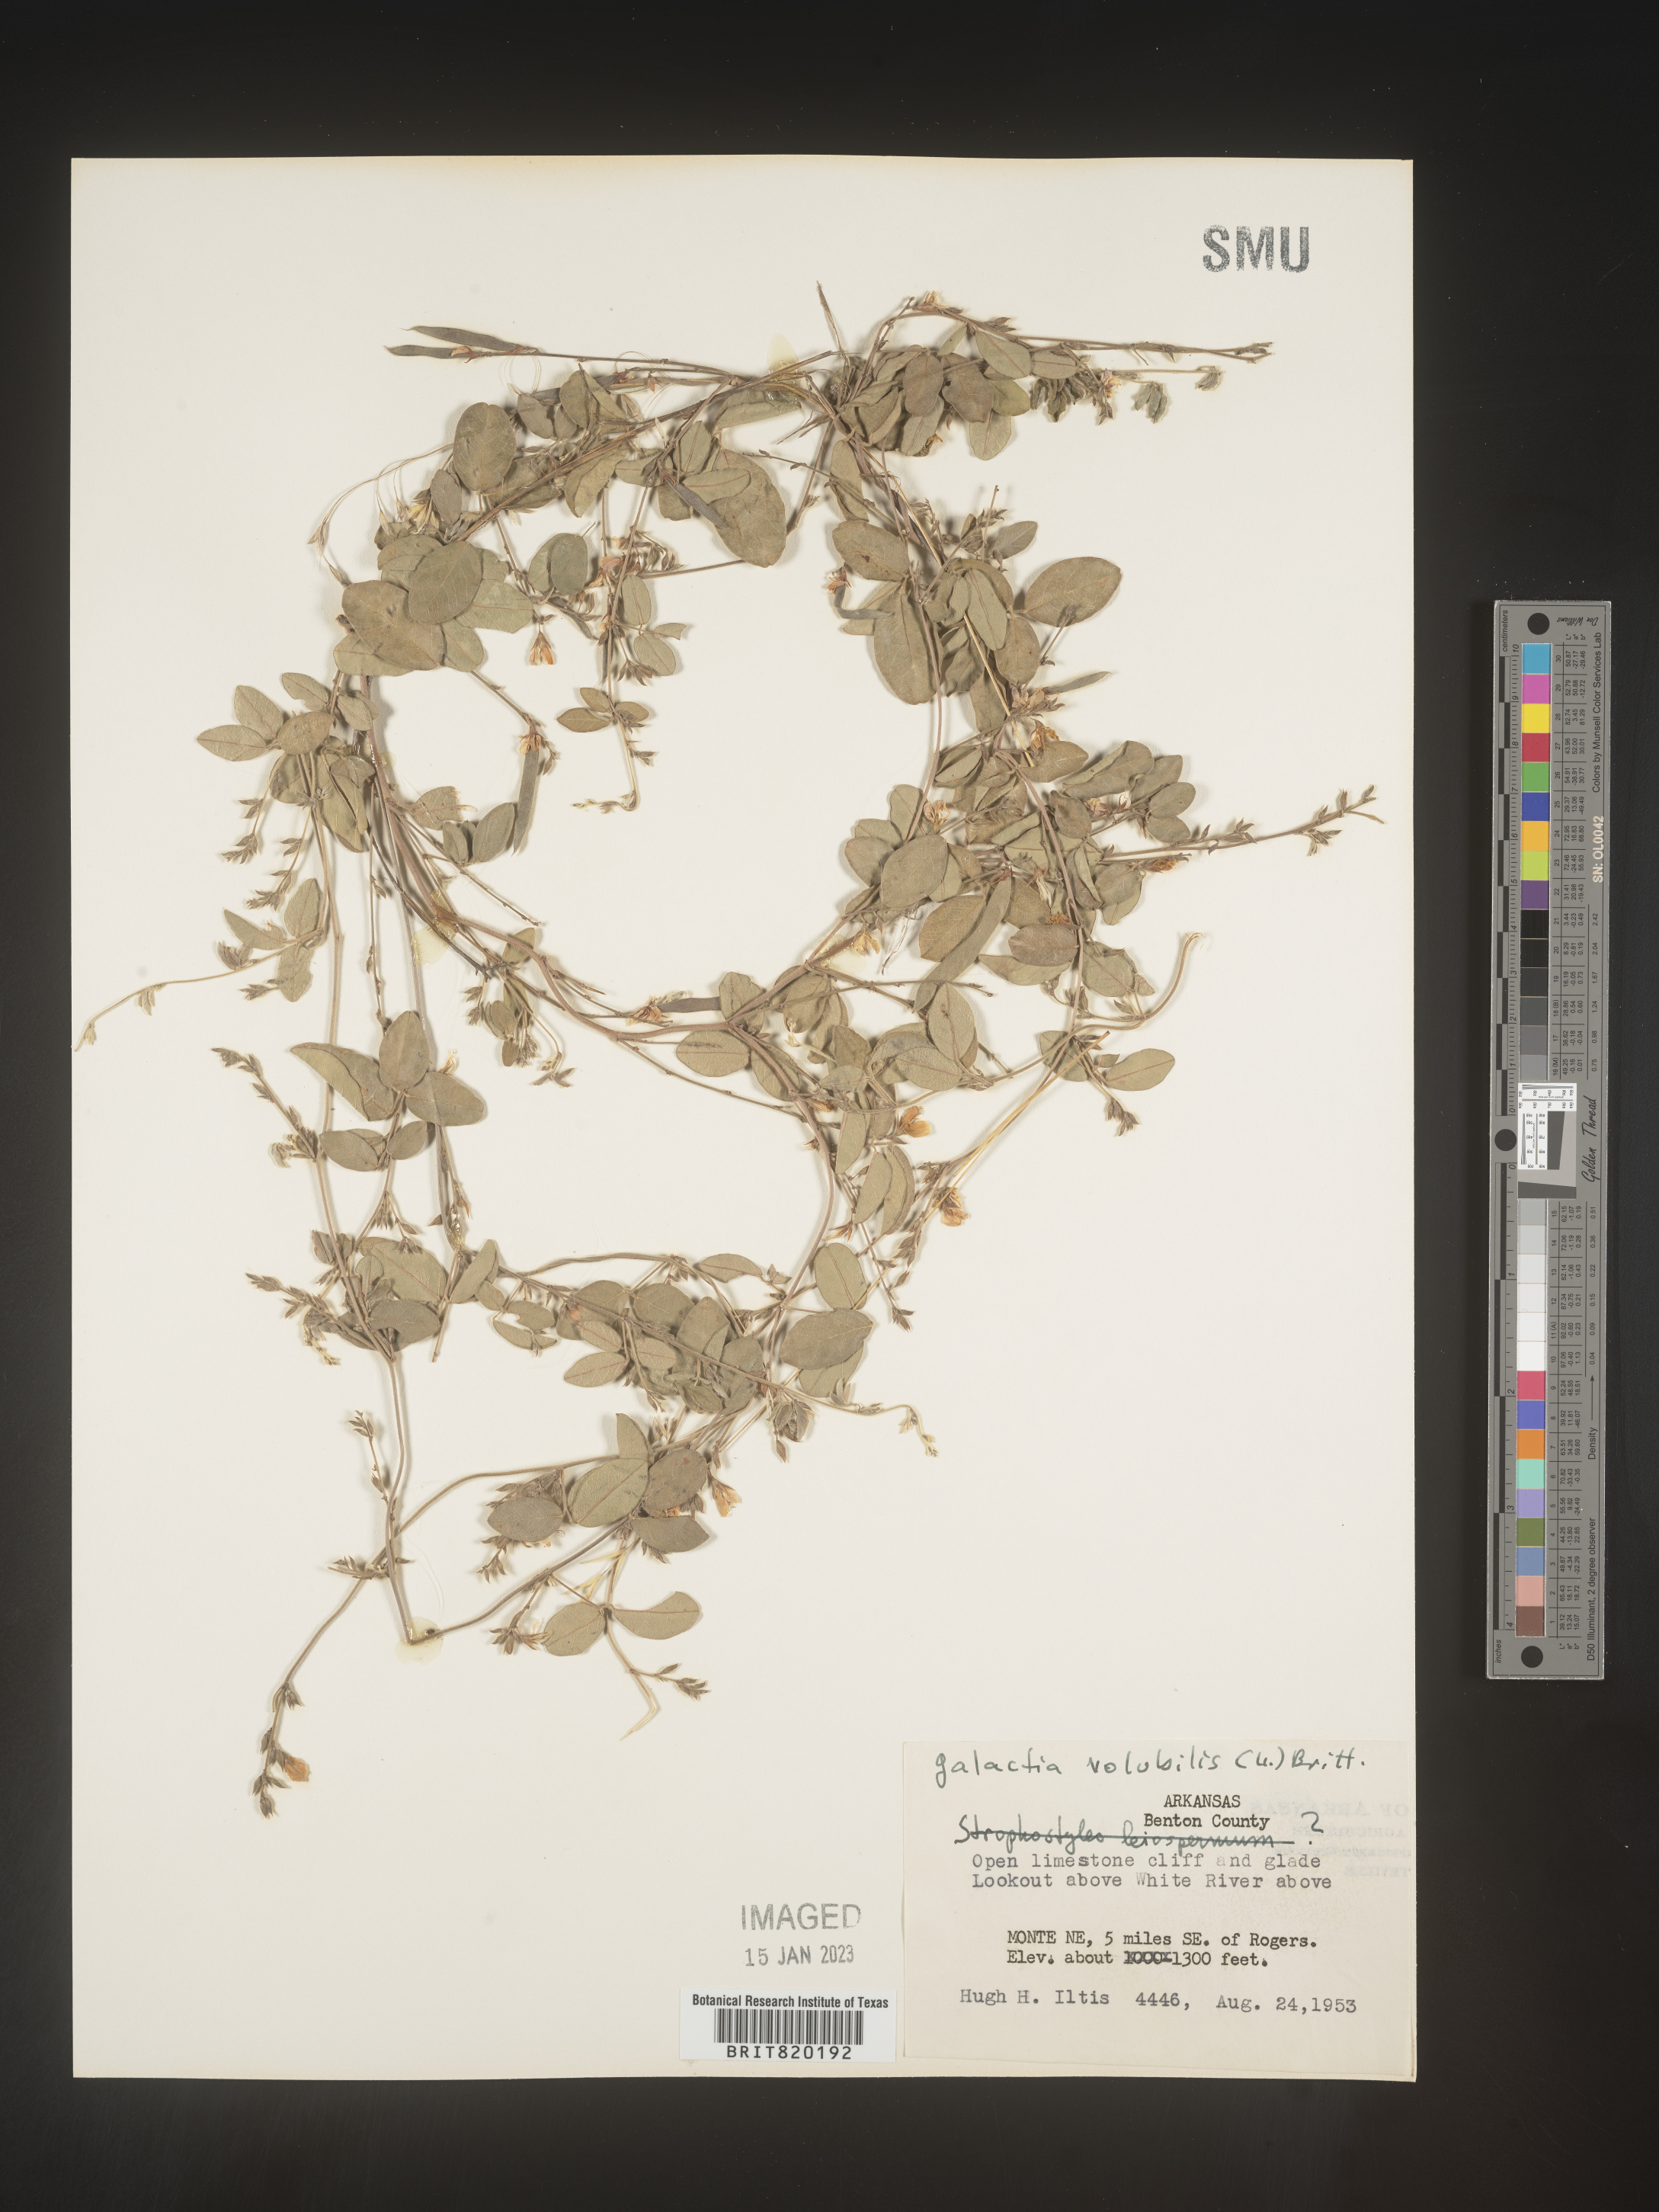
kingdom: Plantae
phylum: Tracheophyta
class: Magnoliopsida
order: Fabales
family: Fabaceae
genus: Galactia
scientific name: Galactia volubilis
